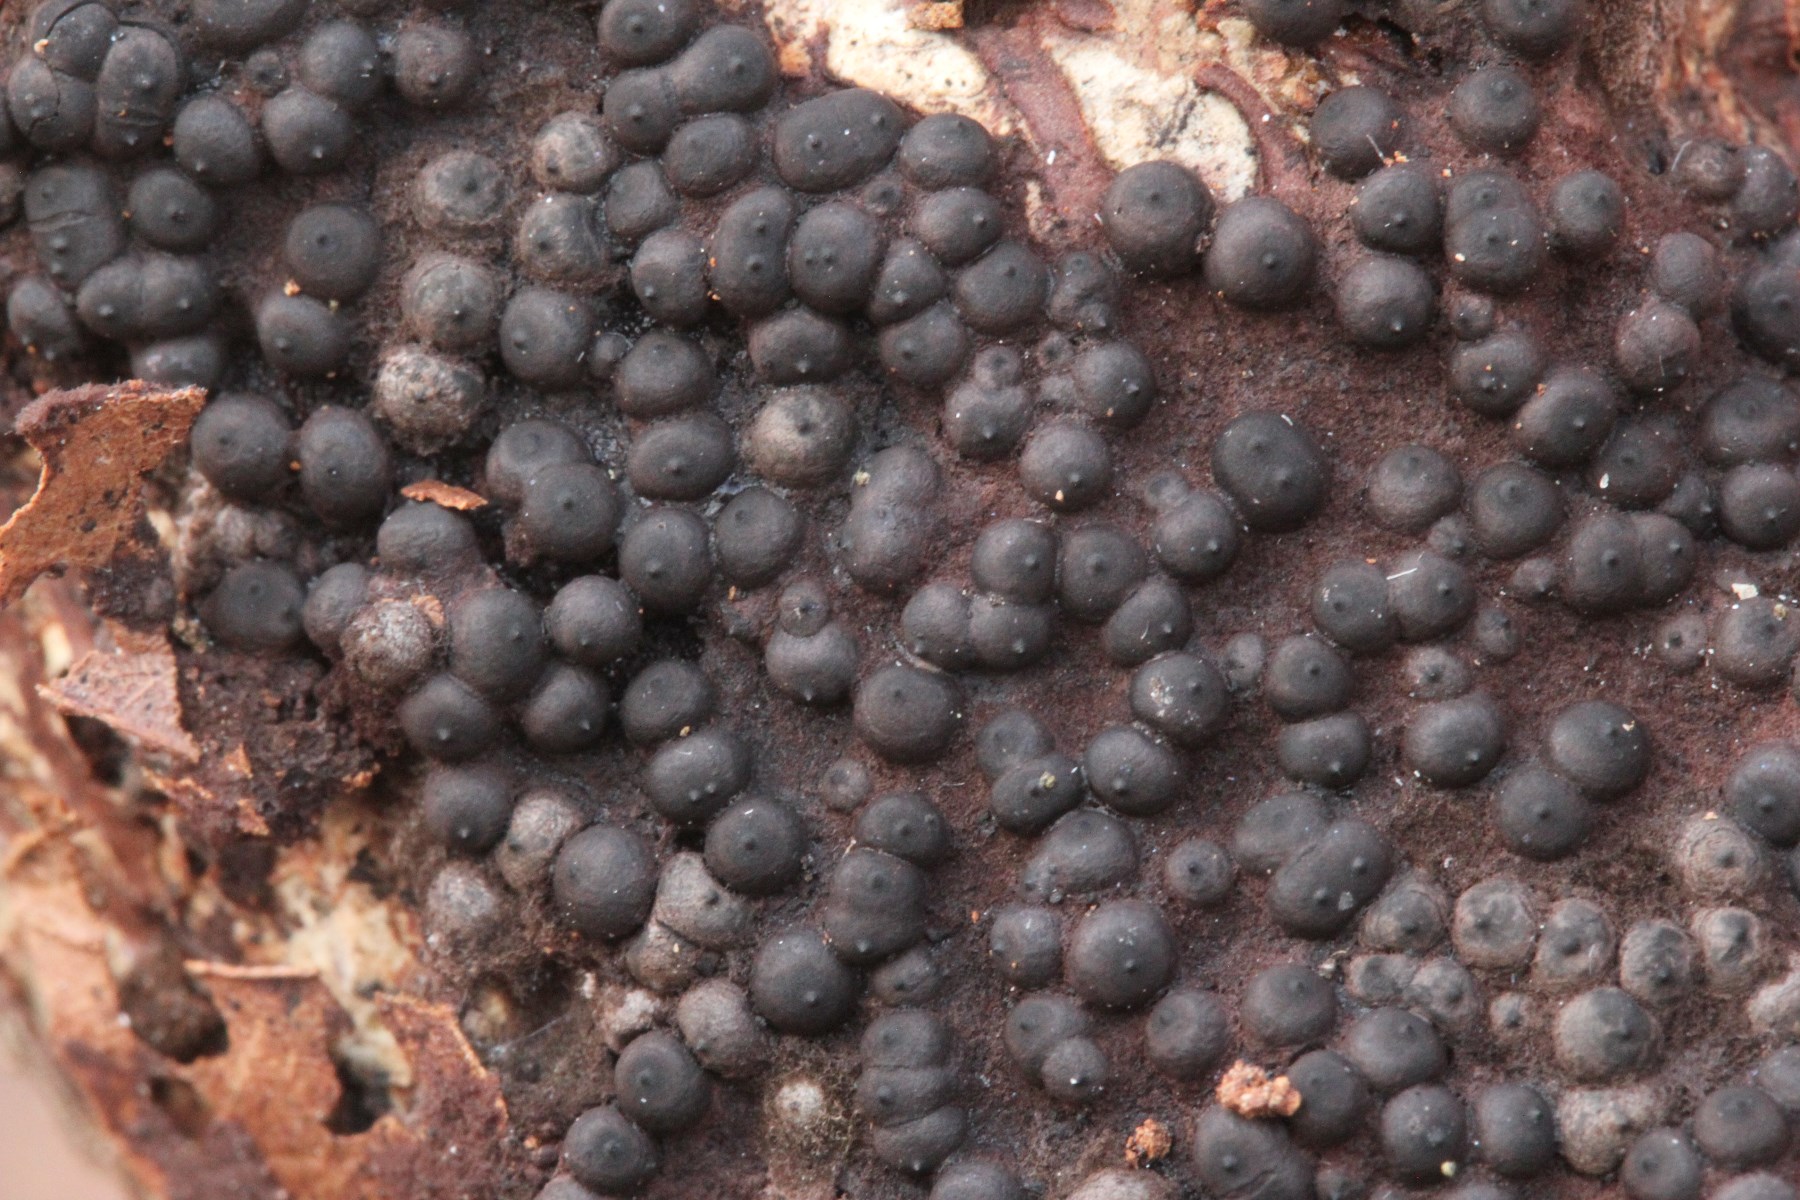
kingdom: Fungi
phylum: Ascomycota
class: Sordariomycetes
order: Xylariales
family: Xylariaceae
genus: Rosellinia
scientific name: Rosellinia
